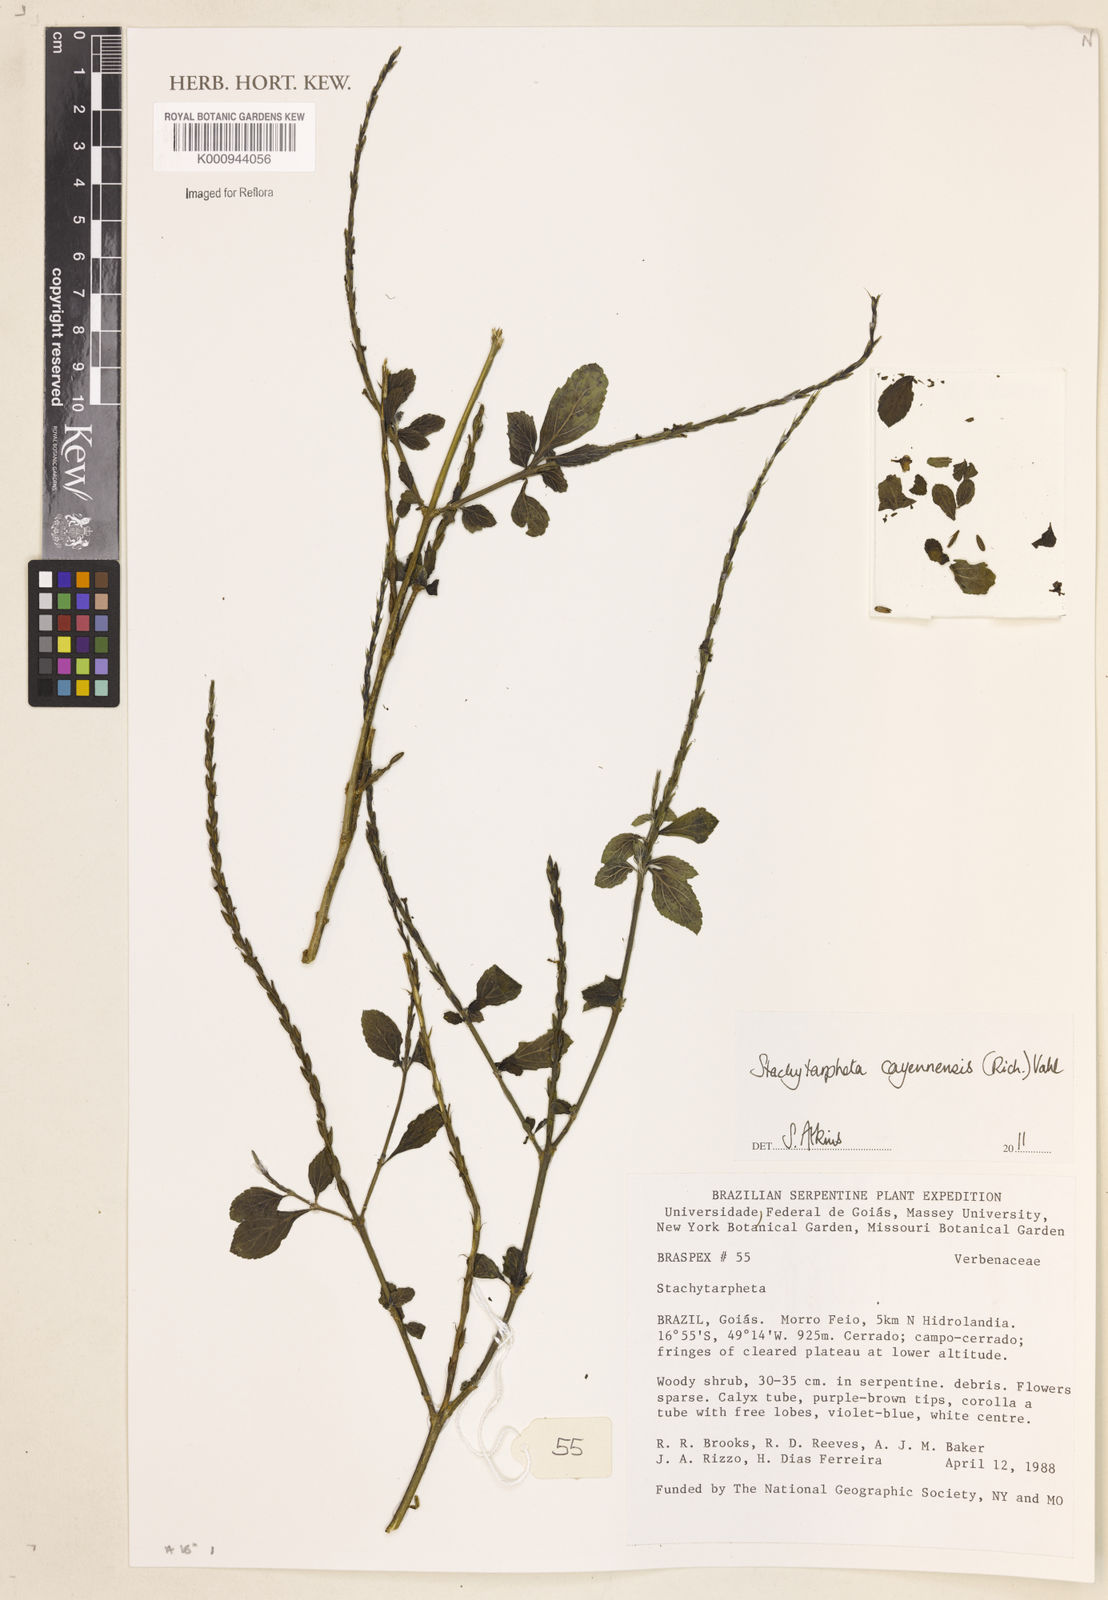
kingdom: Plantae
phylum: Tracheophyta
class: Magnoliopsida
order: Lamiales
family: Verbenaceae
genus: Aloysia
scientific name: Aloysia
